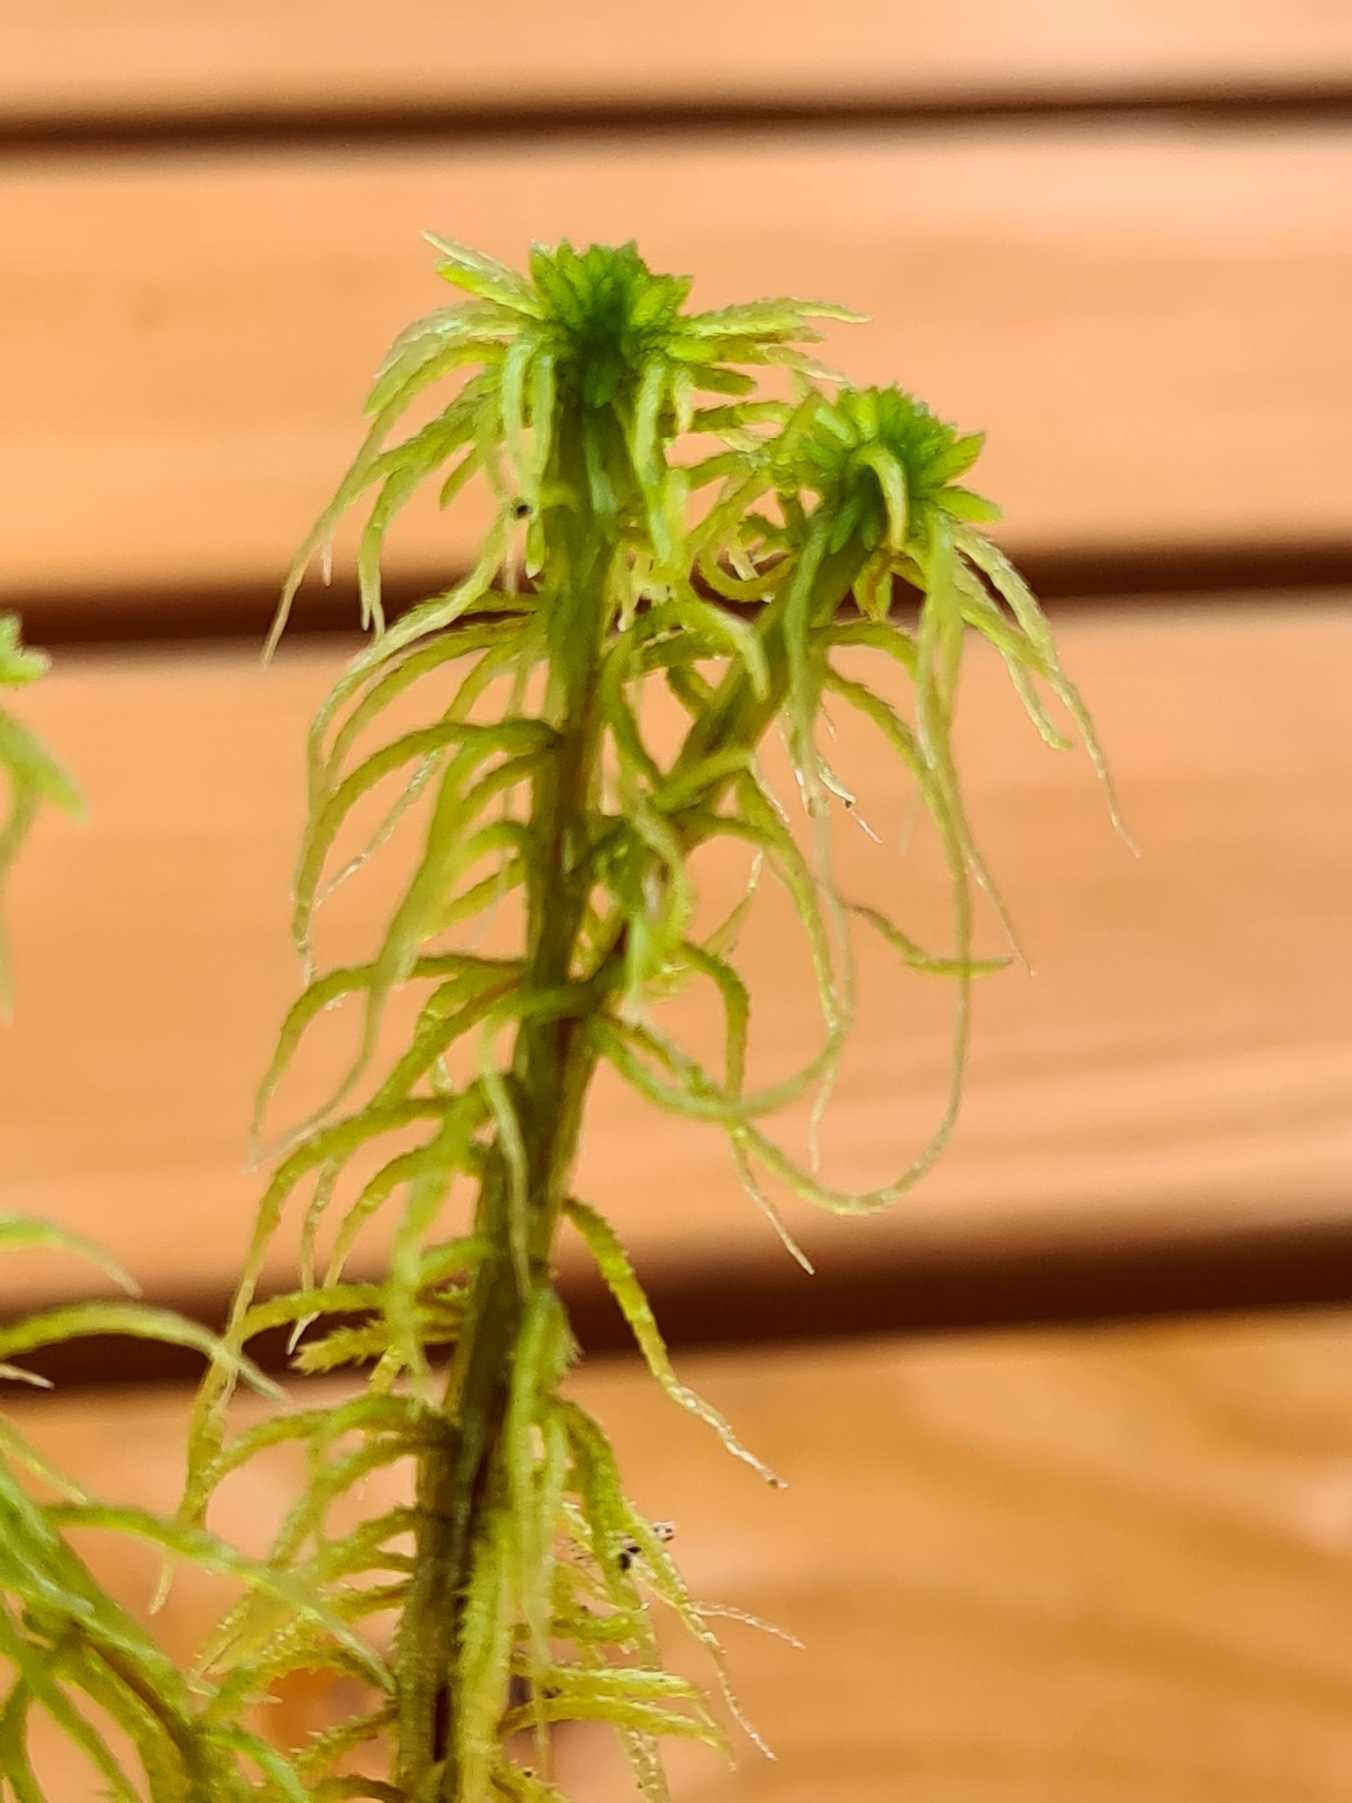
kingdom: Plantae
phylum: Bryophyta
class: Sphagnopsida
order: Sphagnales
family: Sphagnaceae
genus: Sphagnum
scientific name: Sphagnum teres
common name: Trindgrenet tørvemos
